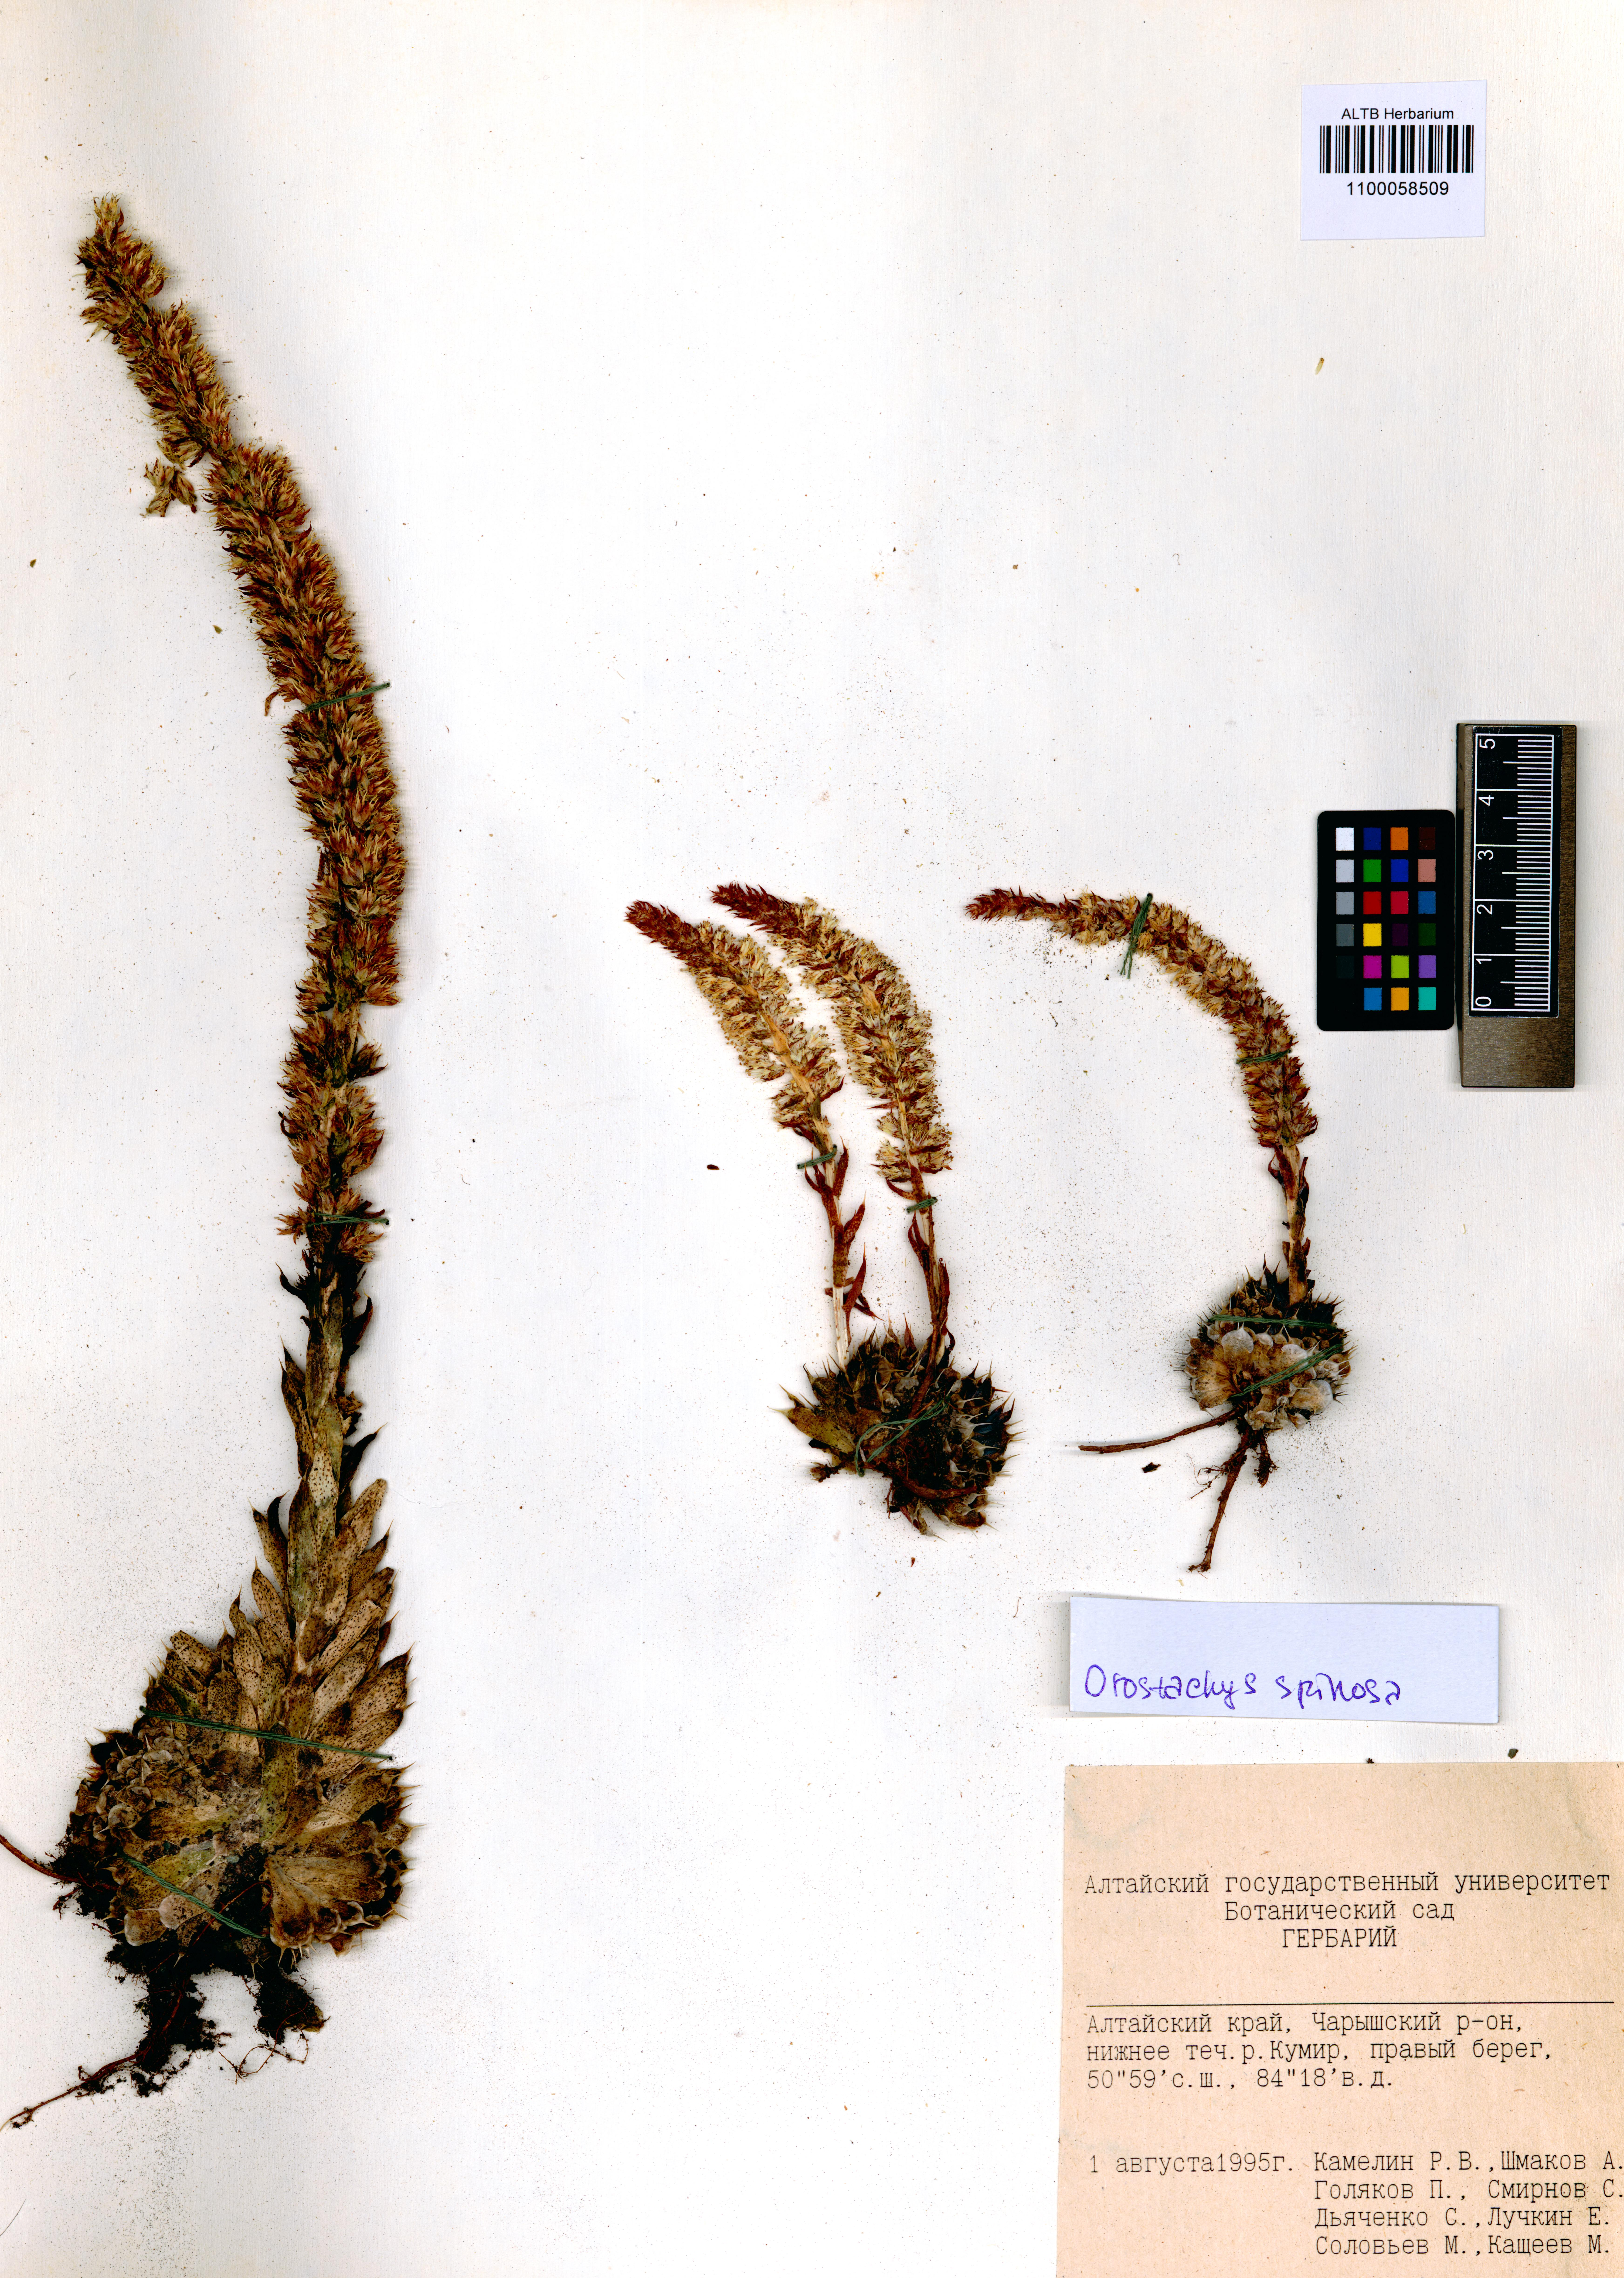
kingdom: Plantae
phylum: Tracheophyta
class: Magnoliopsida
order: Saxifragales
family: Crassulaceae
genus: Orostachys
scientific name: Orostachys spinosa
